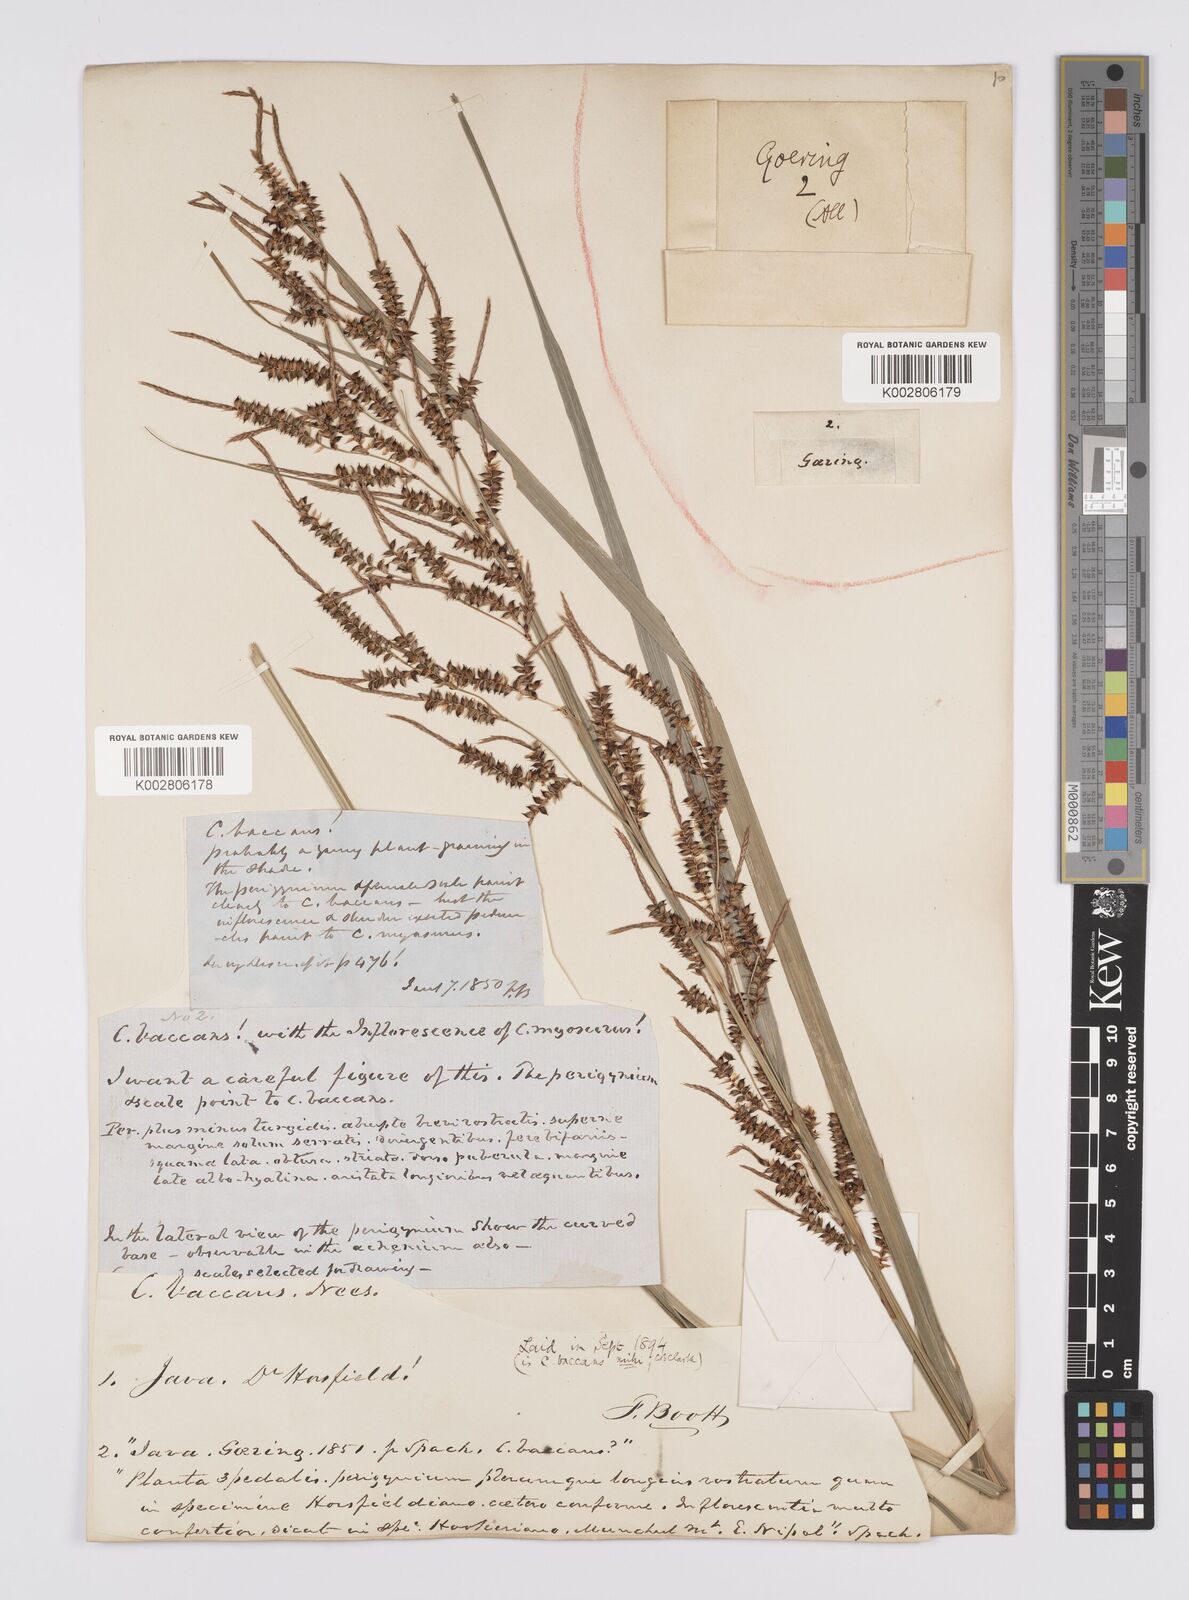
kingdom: Plantae
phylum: Tracheophyta
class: Liliopsida
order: Poales
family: Cyperaceae
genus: Carex
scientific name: Carex baccans
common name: Crimson seeded sedge
